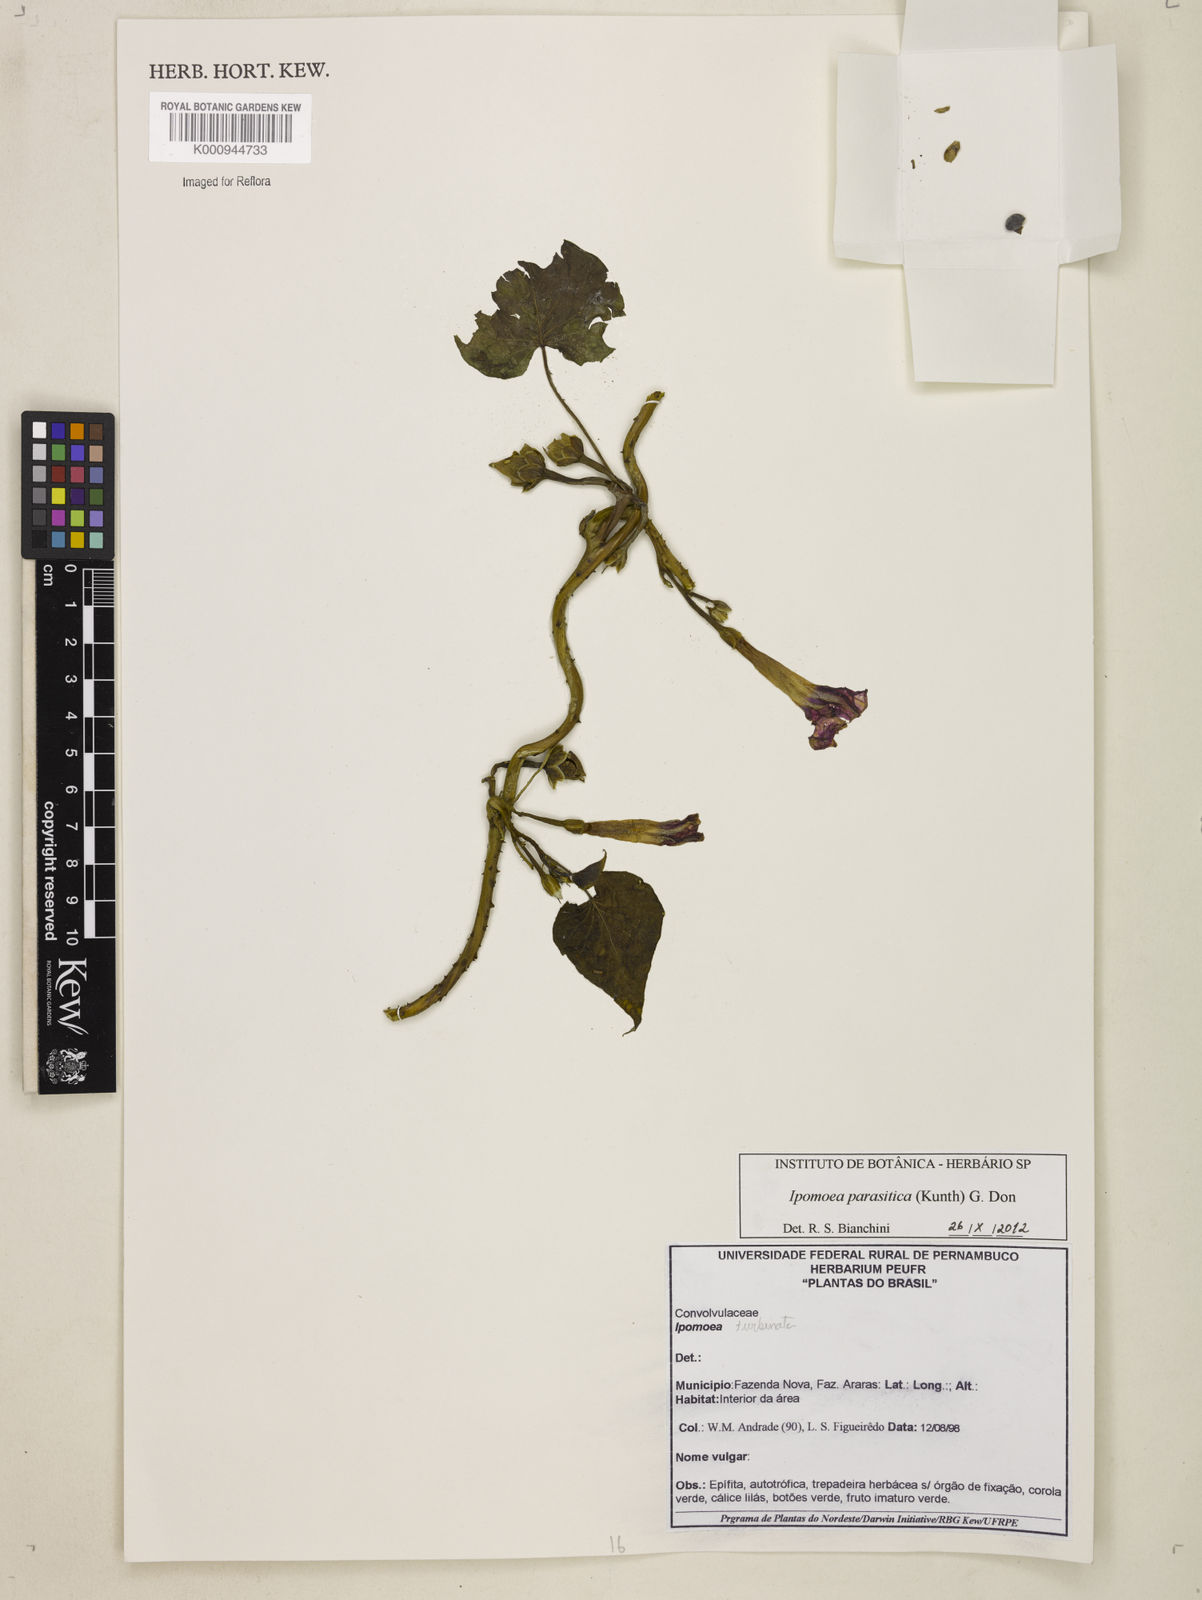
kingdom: Plantae
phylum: Tracheophyta
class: Magnoliopsida
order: Solanales
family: Convolvulaceae
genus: Ipomoea
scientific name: Ipomoea parasitica
